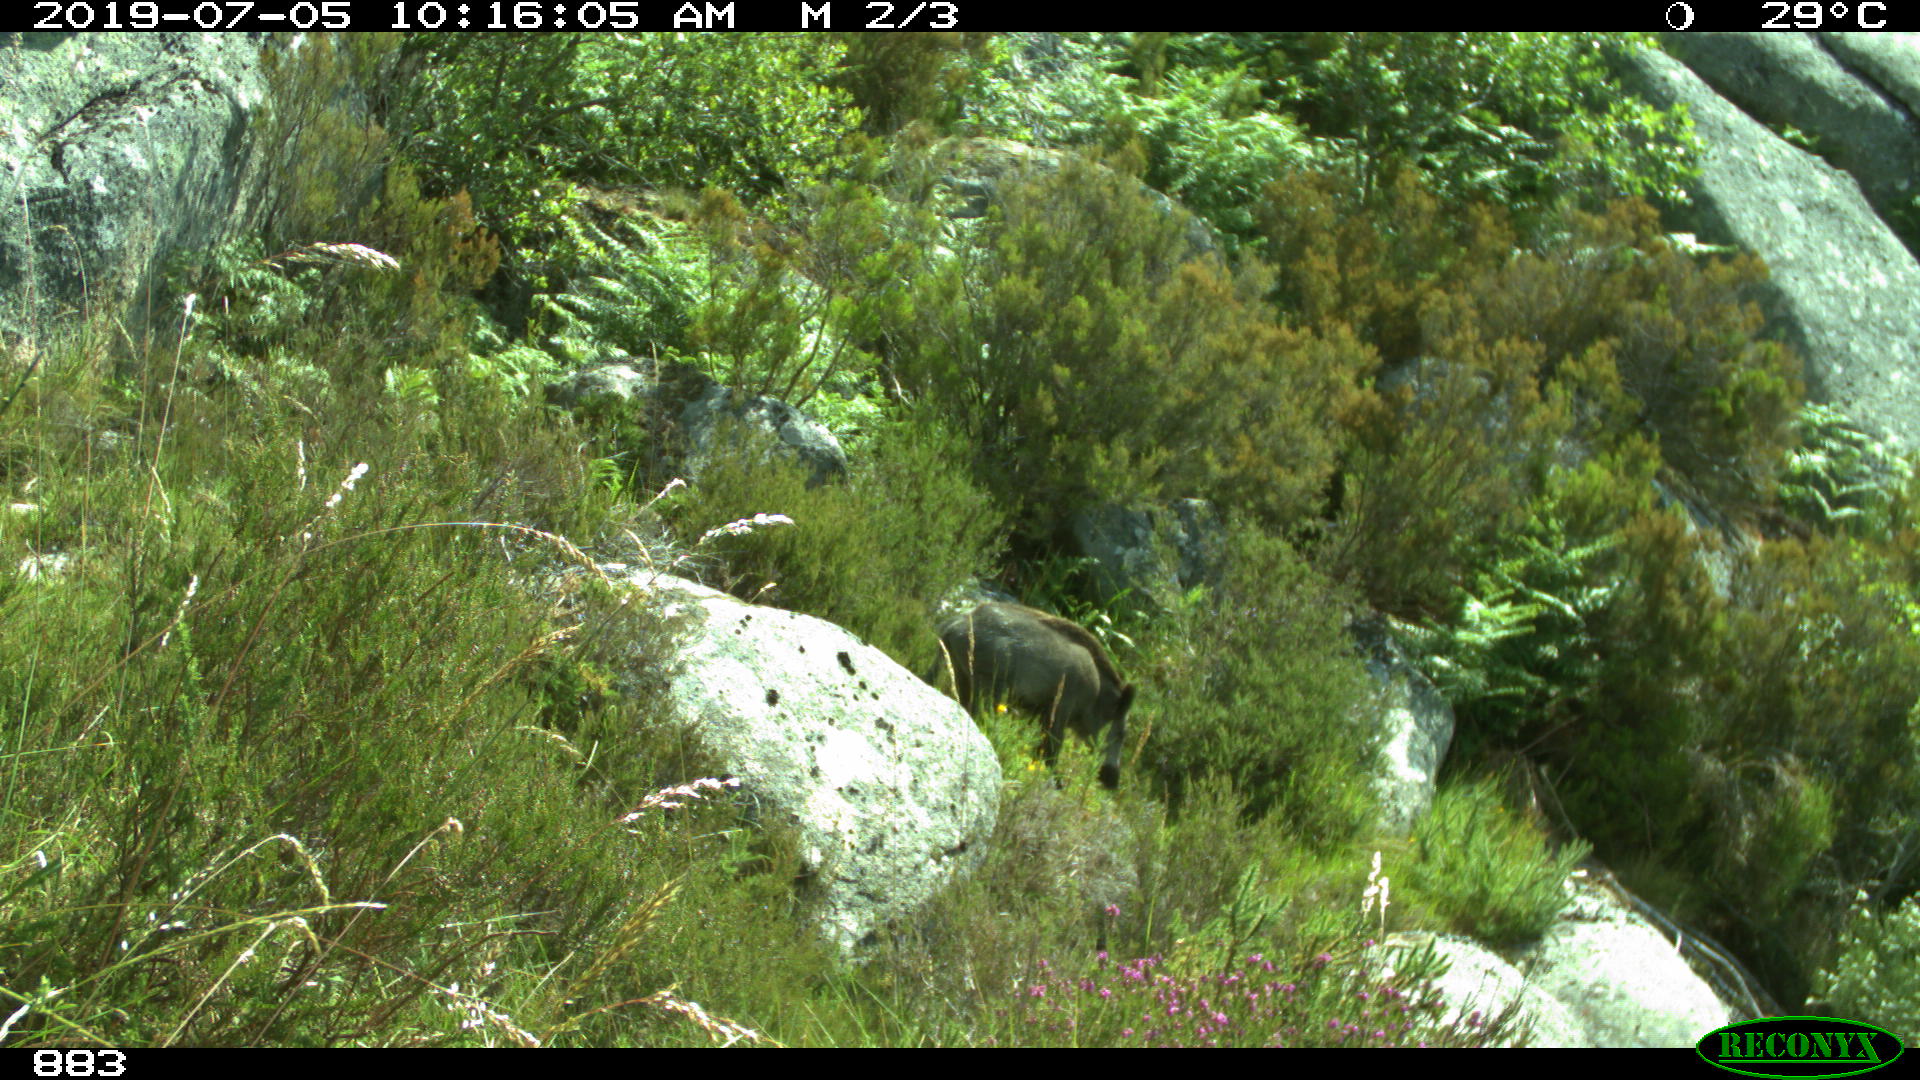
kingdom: Animalia
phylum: Chordata
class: Mammalia
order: Artiodactyla
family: Suidae
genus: Sus
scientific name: Sus scrofa
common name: Wild boar
